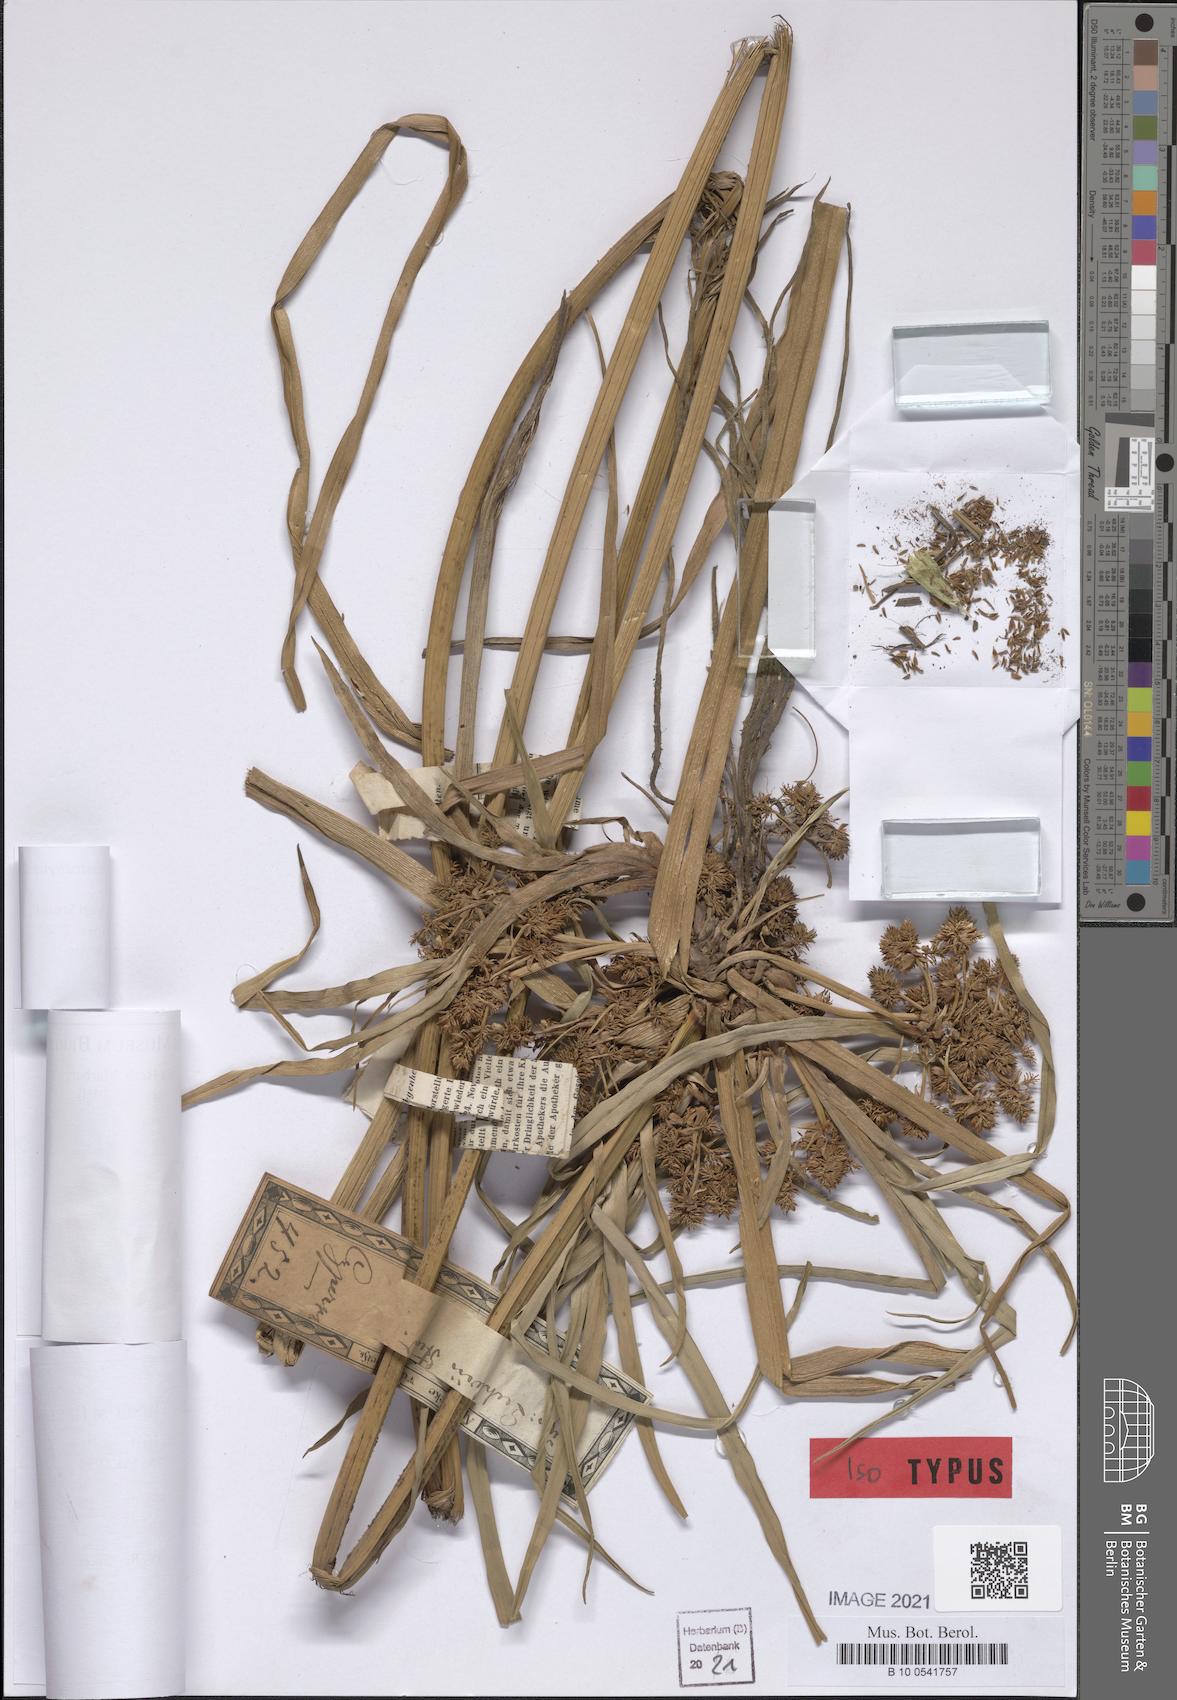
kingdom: Plantae
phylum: Tracheophyta
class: Liliopsida
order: Poales
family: Cyperaceae
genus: Cyperus
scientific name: Cyperus xanthostachyus
